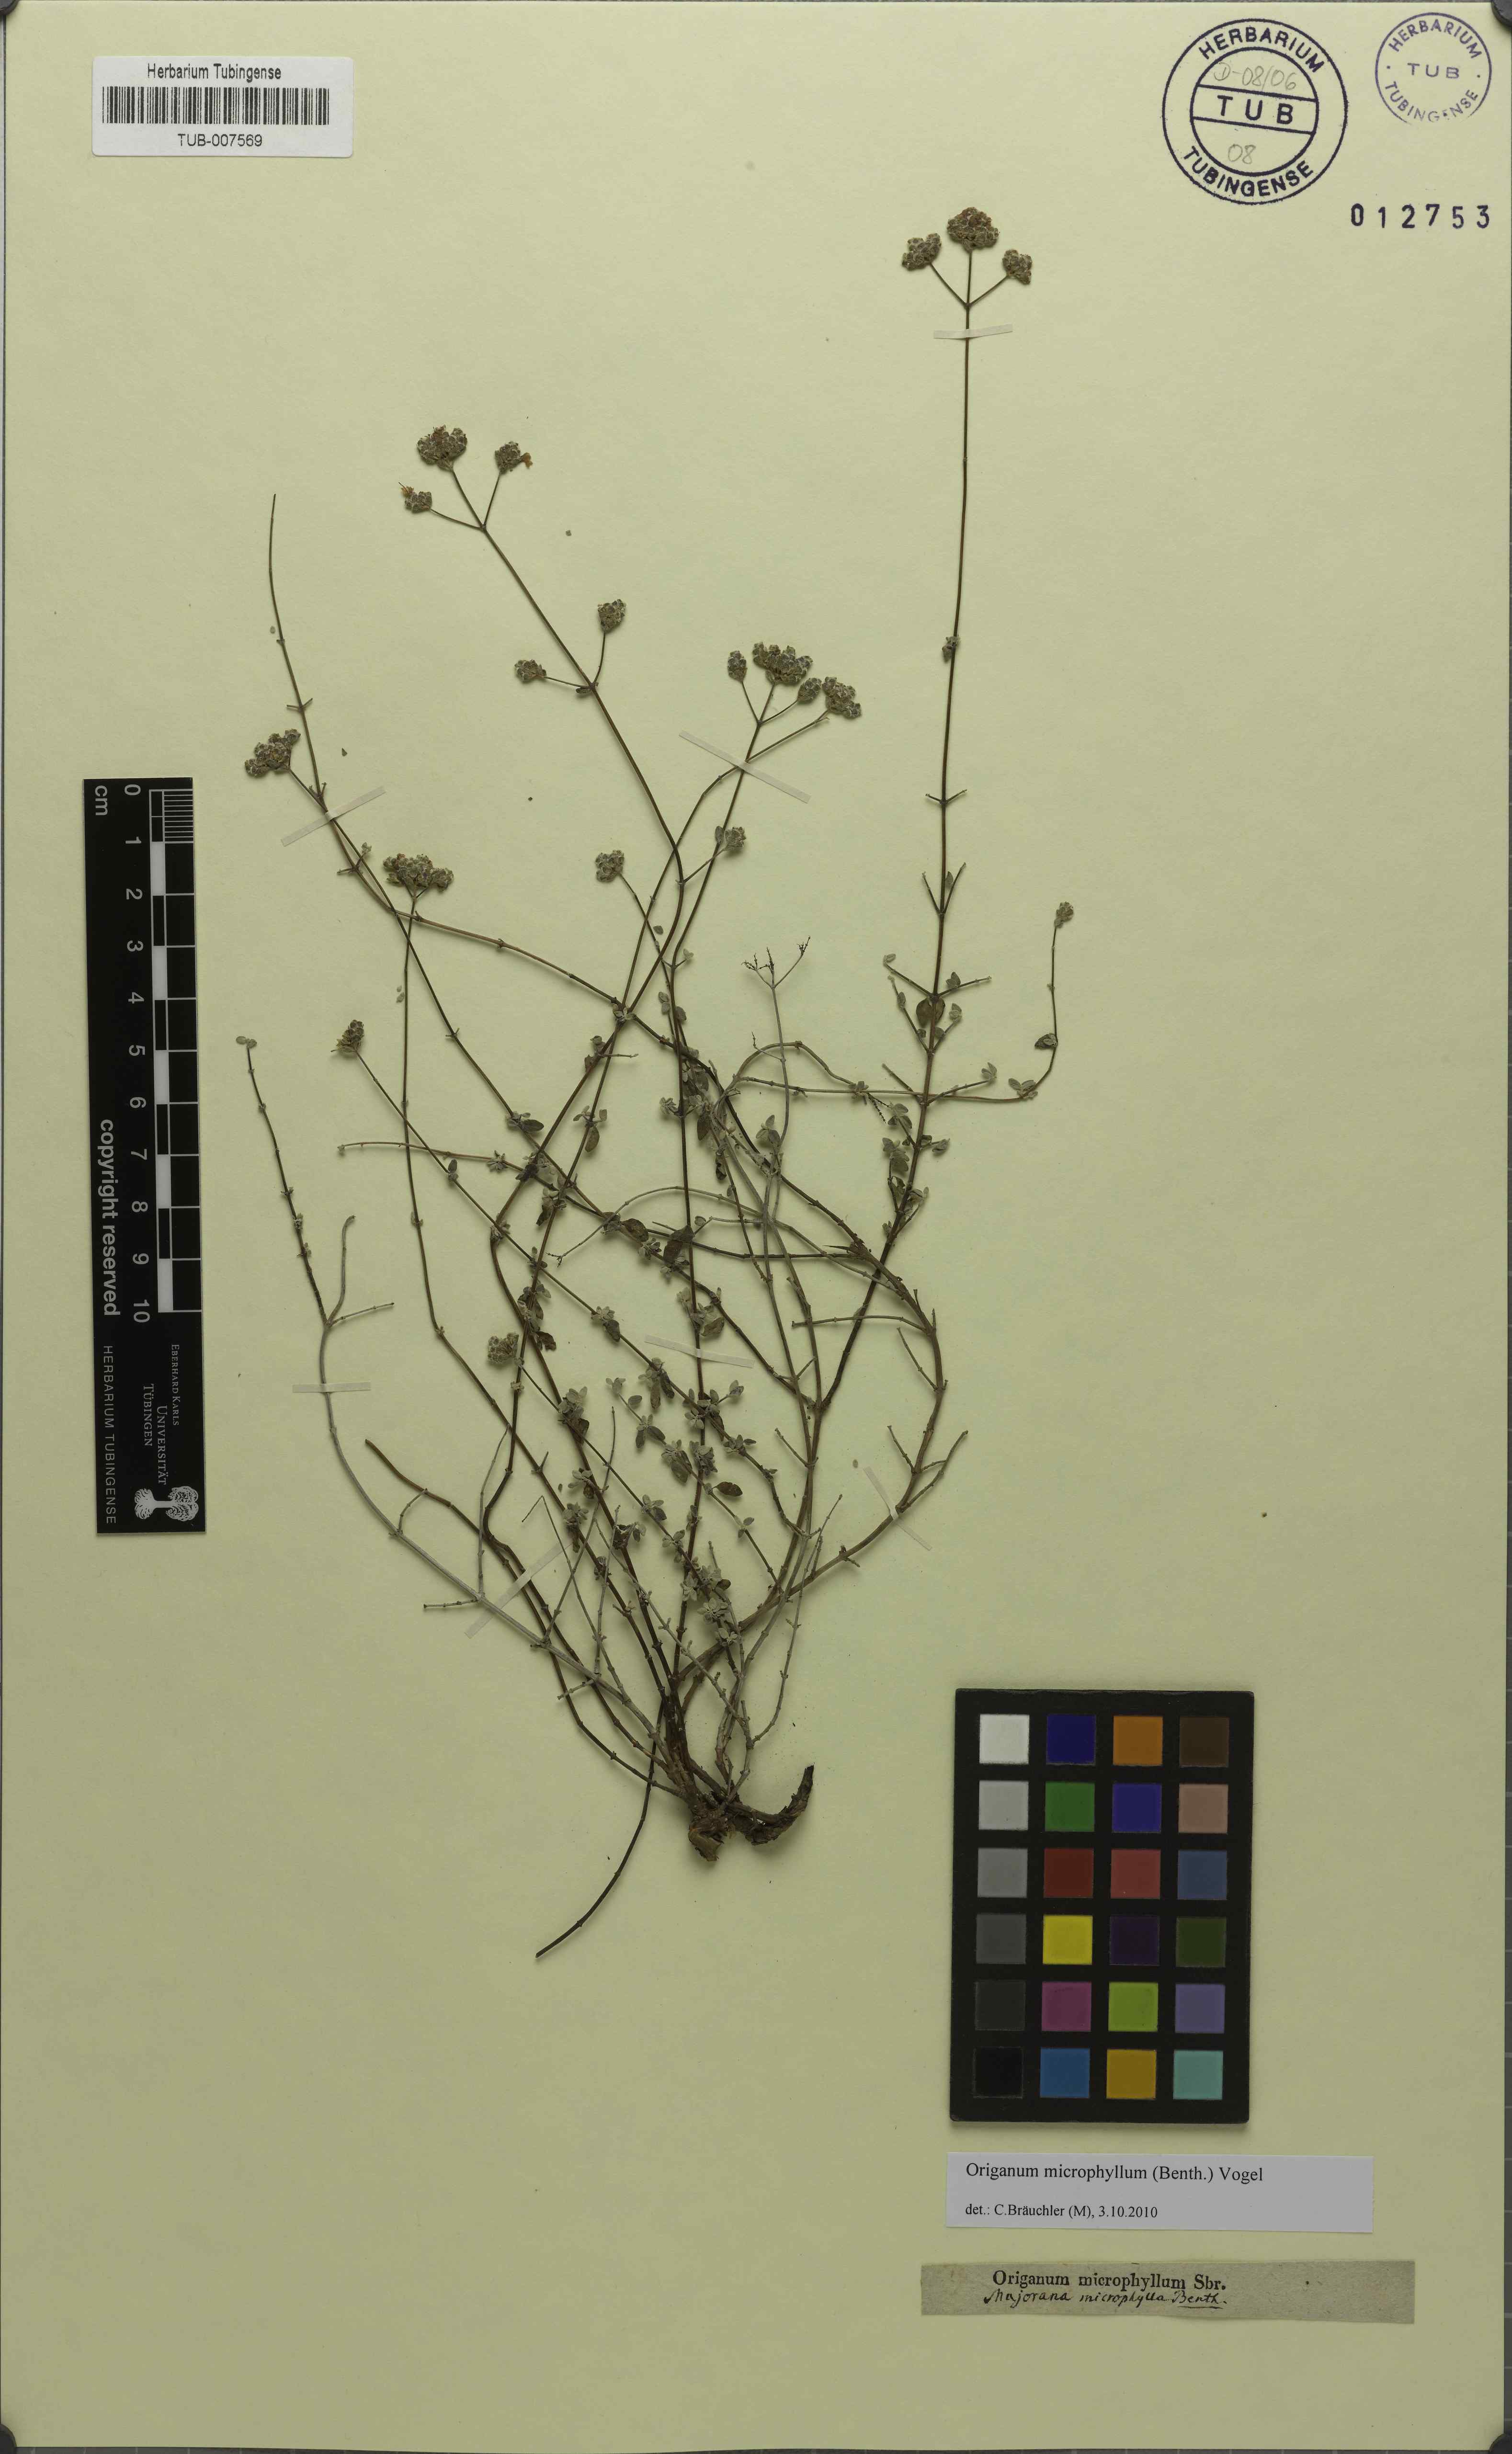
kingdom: Plantae
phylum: Tracheophyta
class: Magnoliopsida
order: Lamiales
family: Lamiaceae
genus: Origanum
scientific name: Origanum microphyllum
